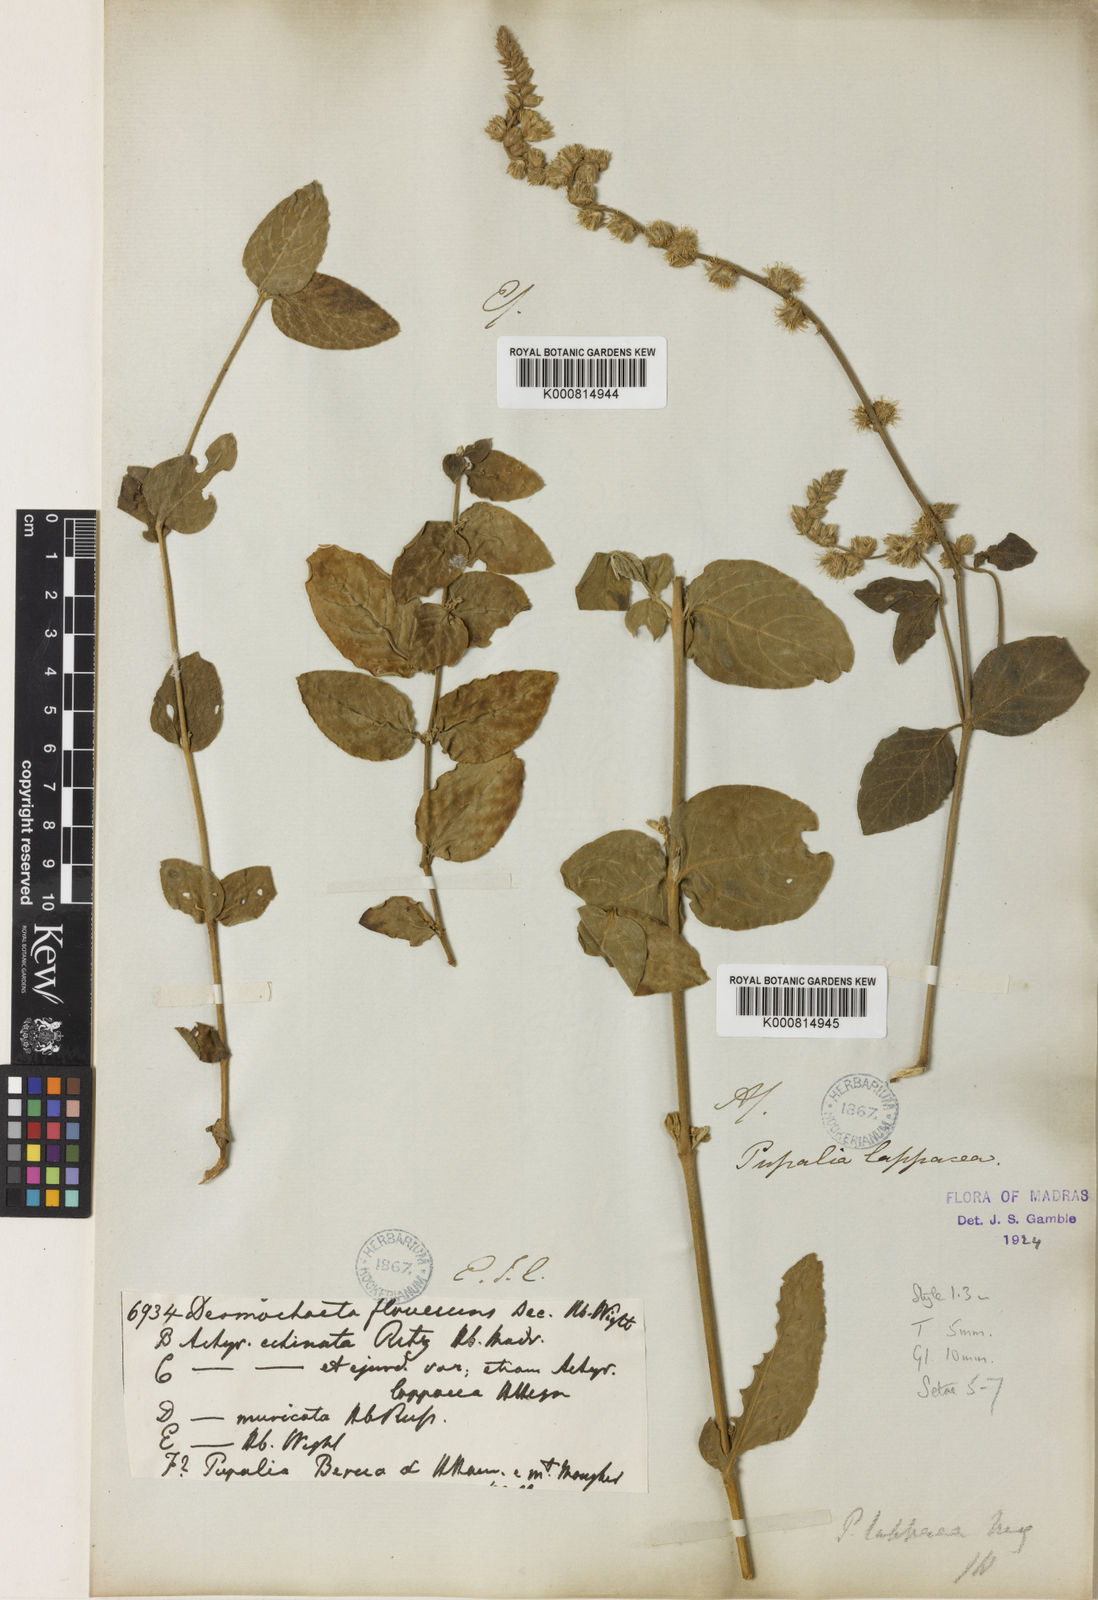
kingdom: Plantae
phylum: Tracheophyta
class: Magnoliopsida
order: Caryophyllales
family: Amaranthaceae
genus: Pupalia
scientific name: Pupalia lappacea
